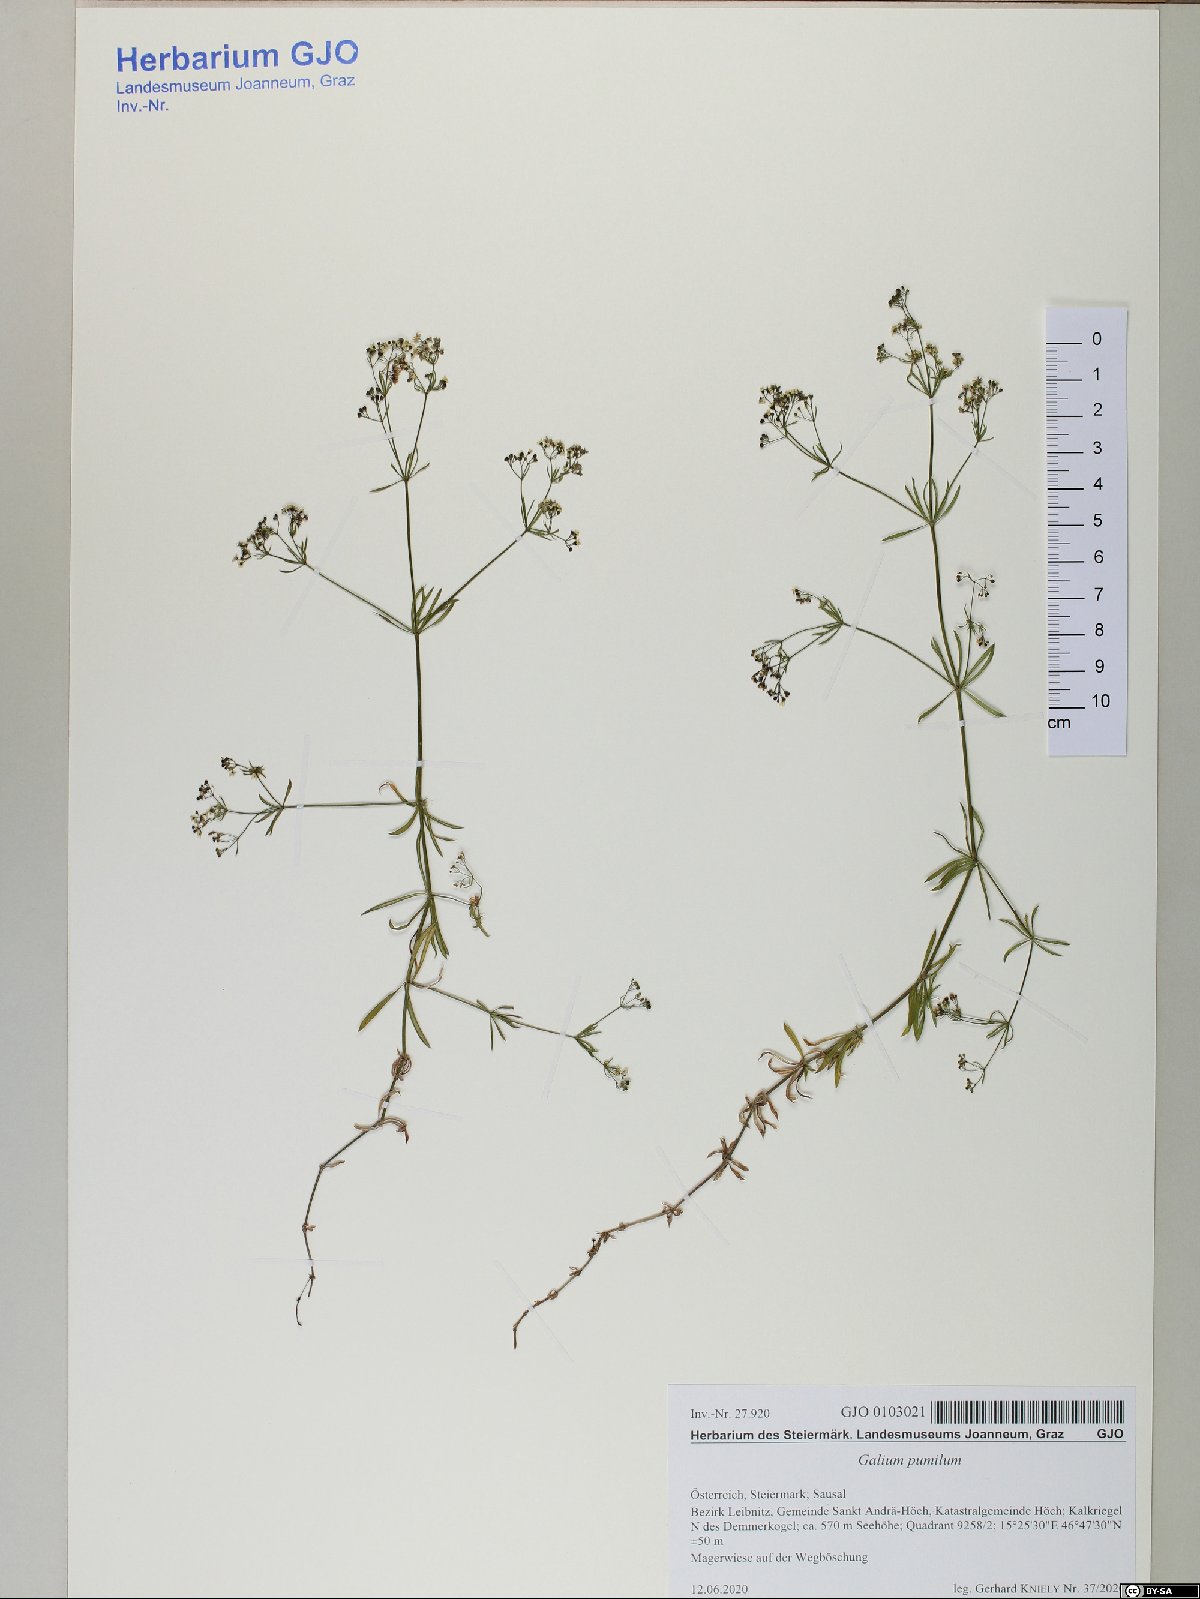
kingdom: Plantae
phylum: Tracheophyta
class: Magnoliopsida
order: Gentianales
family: Rubiaceae
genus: Galium
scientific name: Galium pumilum
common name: Slender bedstraw
